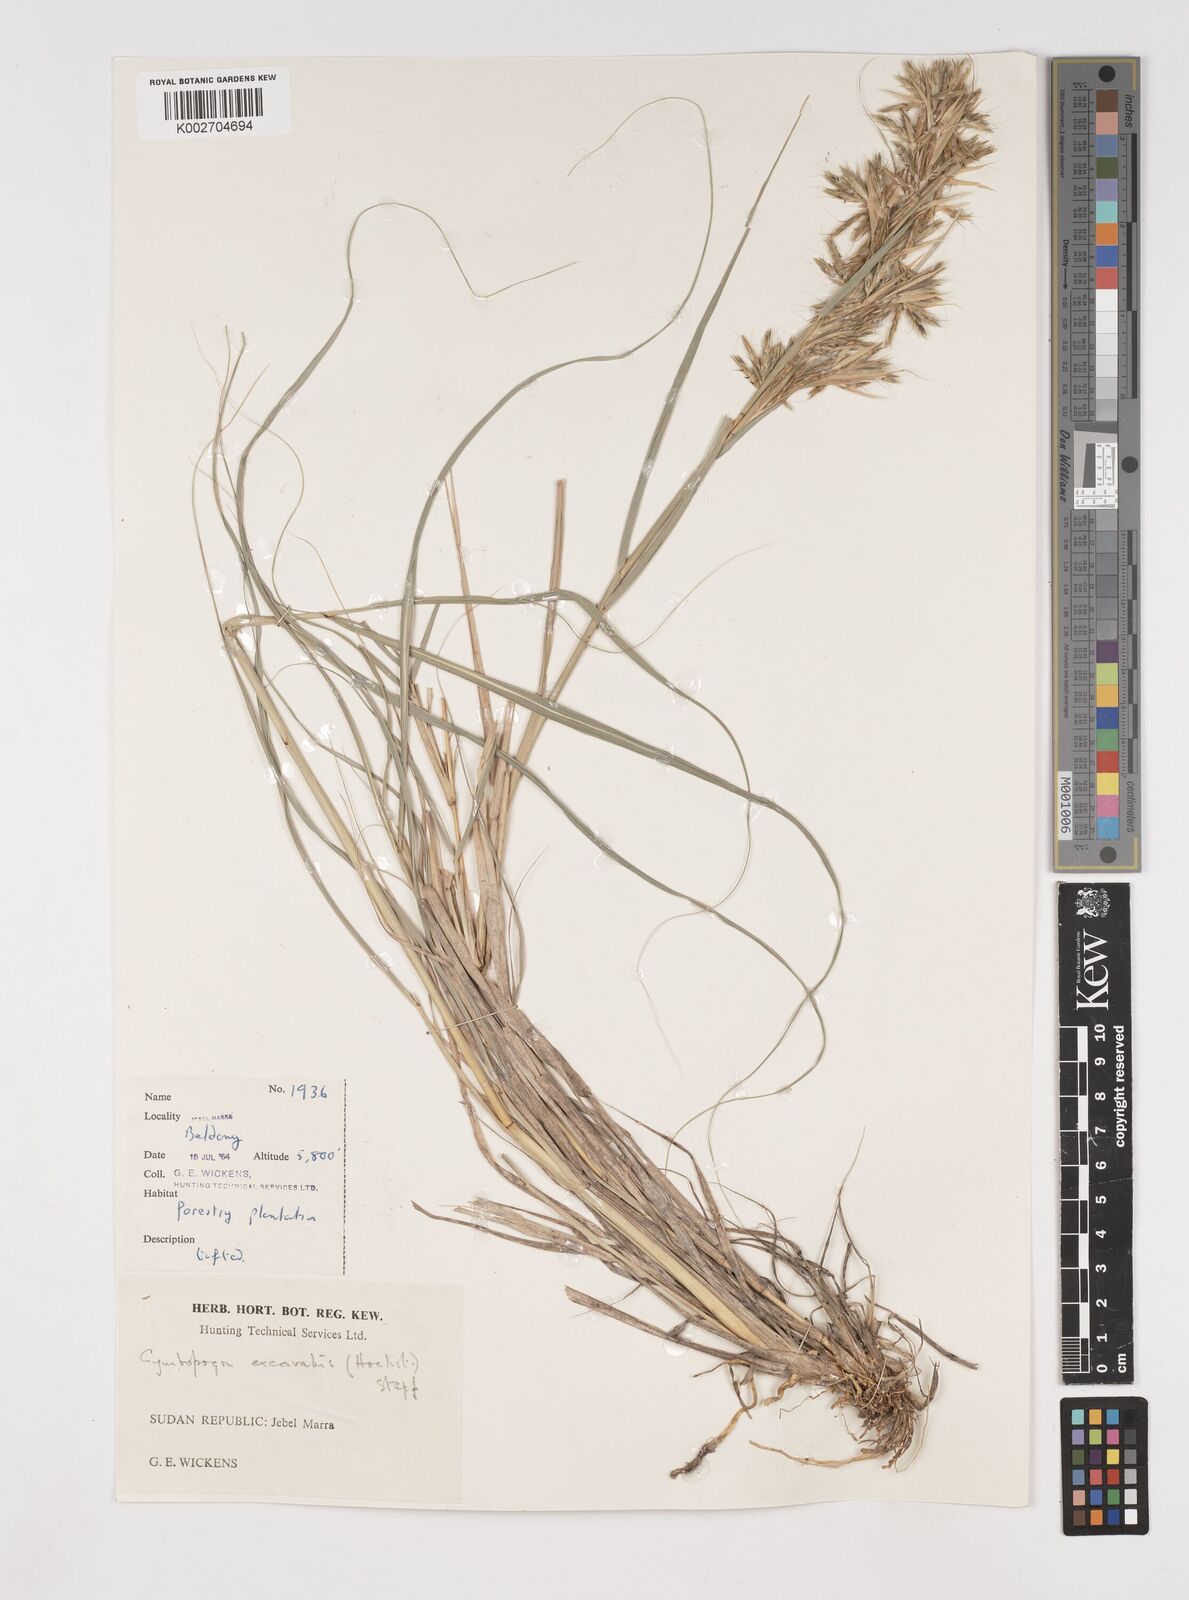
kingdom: Plantae
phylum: Tracheophyta
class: Liliopsida
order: Poales
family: Poaceae
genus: Cymbopogon
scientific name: Cymbopogon caesius
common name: Kachi grass
